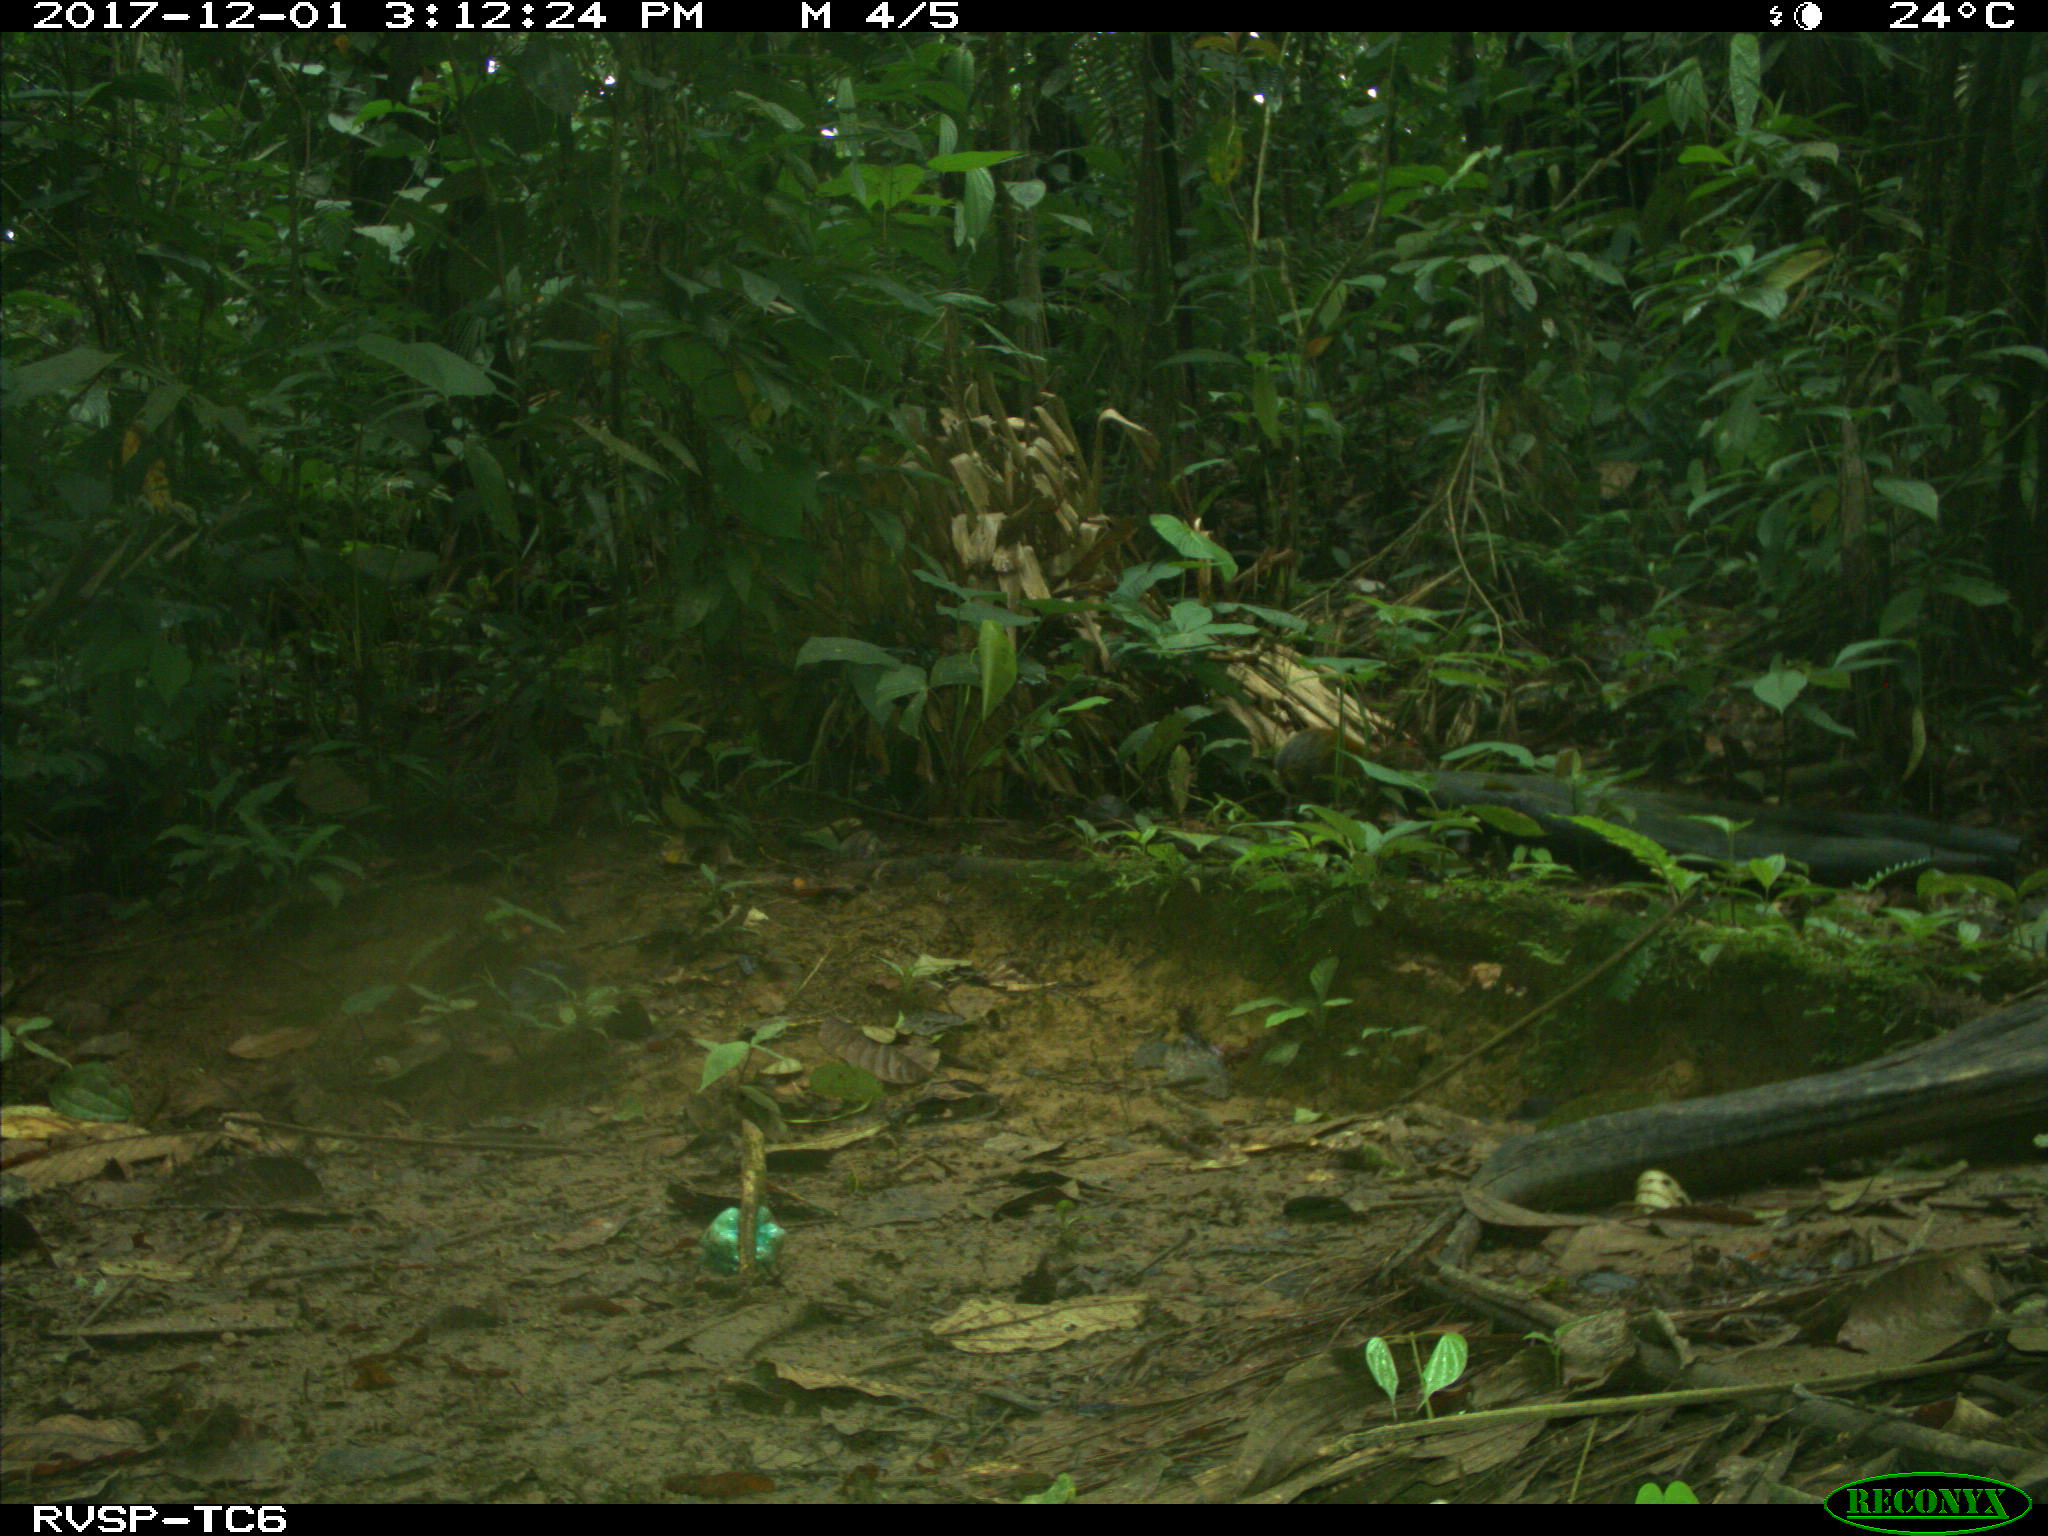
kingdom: Animalia
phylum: Chordata
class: Mammalia
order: Rodentia
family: Dasyproctidae
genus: Dasyprocta
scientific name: Dasyprocta punctata
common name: Central american agouti
